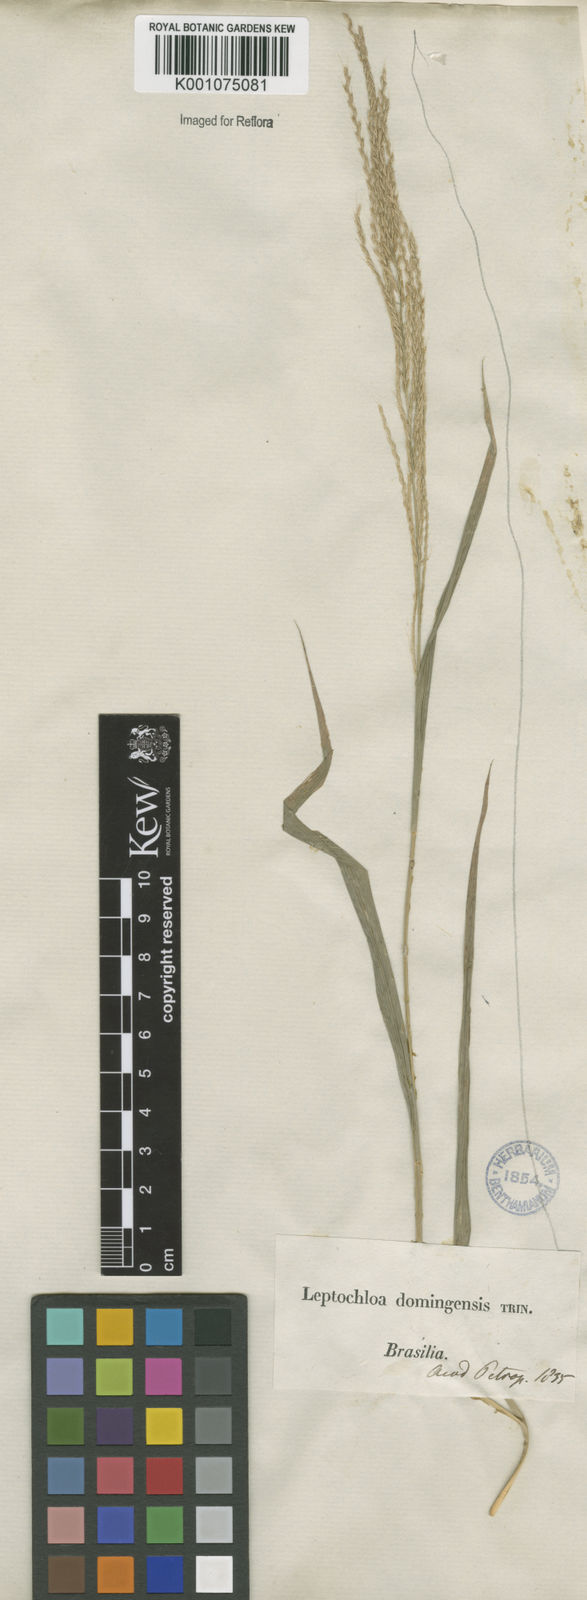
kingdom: Plantae
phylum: Tracheophyta
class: Liliopsida
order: Poales
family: Poaceae
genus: Leptochloa
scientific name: Leptochloa virgata
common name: Tropical sprangletop
